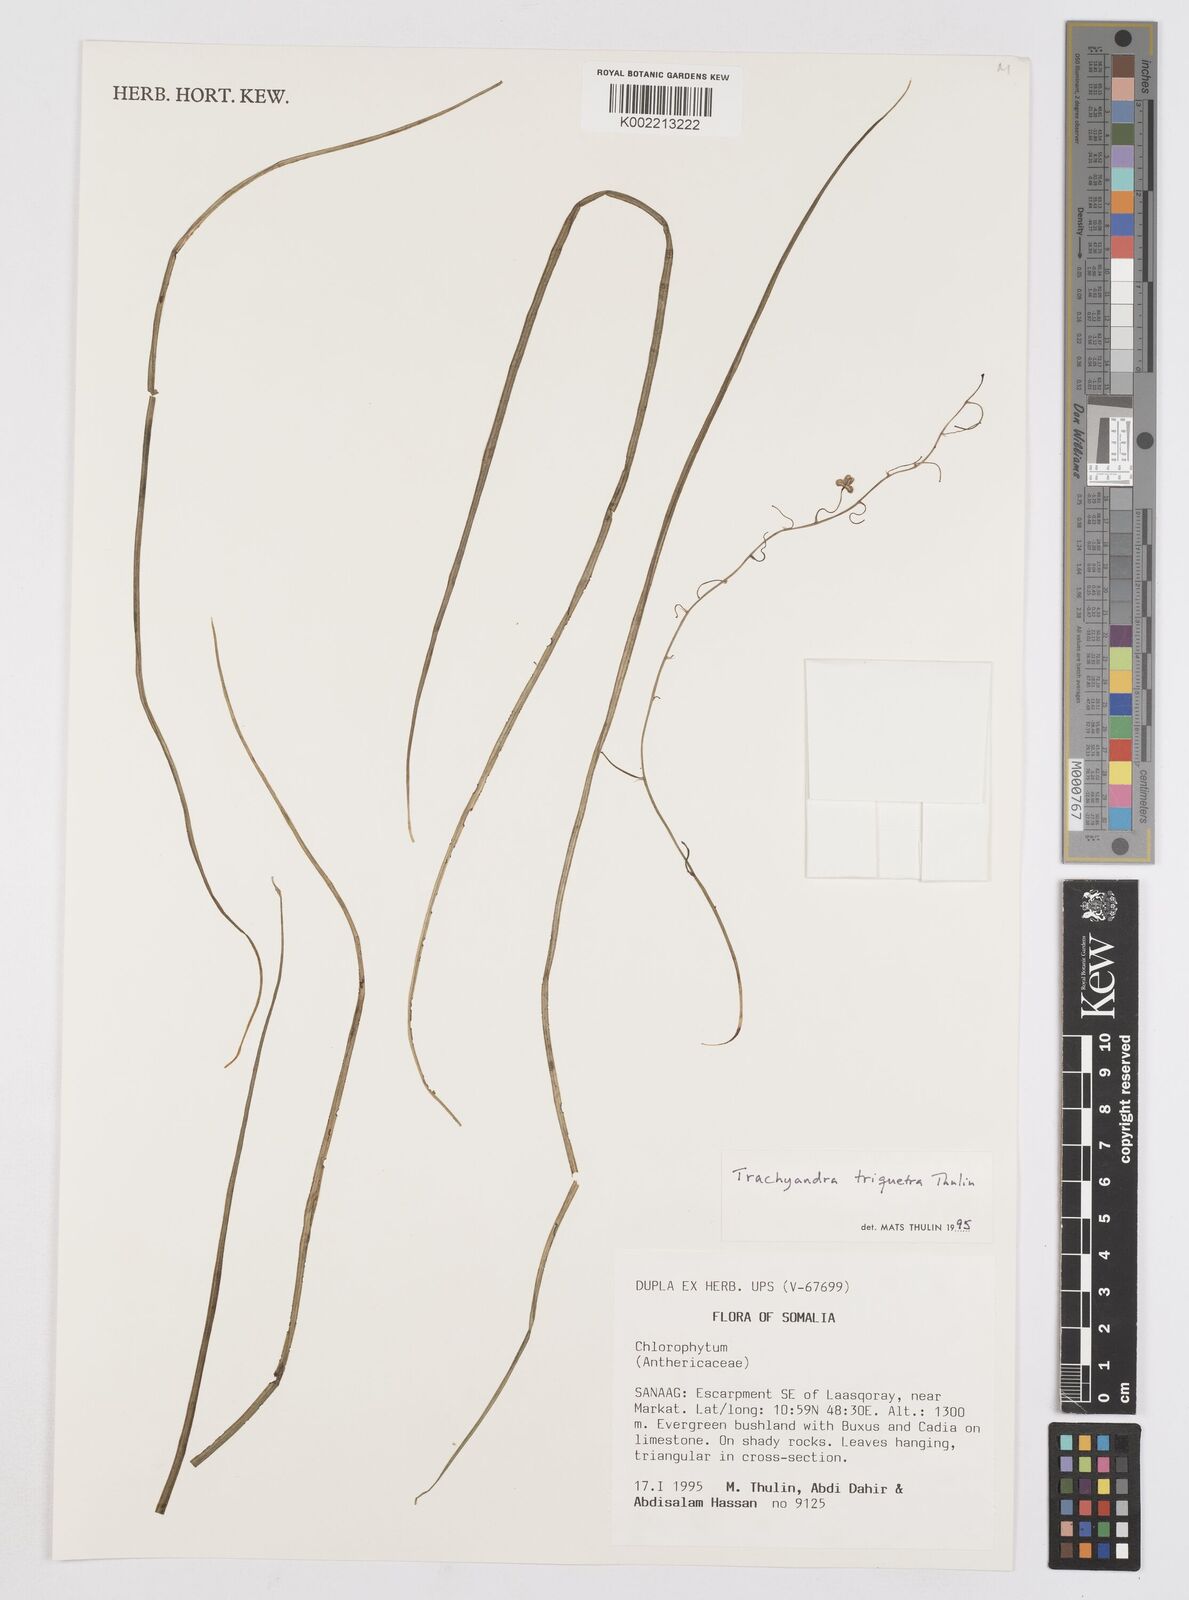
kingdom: Plantae
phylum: Tracheophyta
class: Liliopsida
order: Asparagales
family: Asphodelaceae
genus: Trachyandra
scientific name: Trachyandra triquetra
